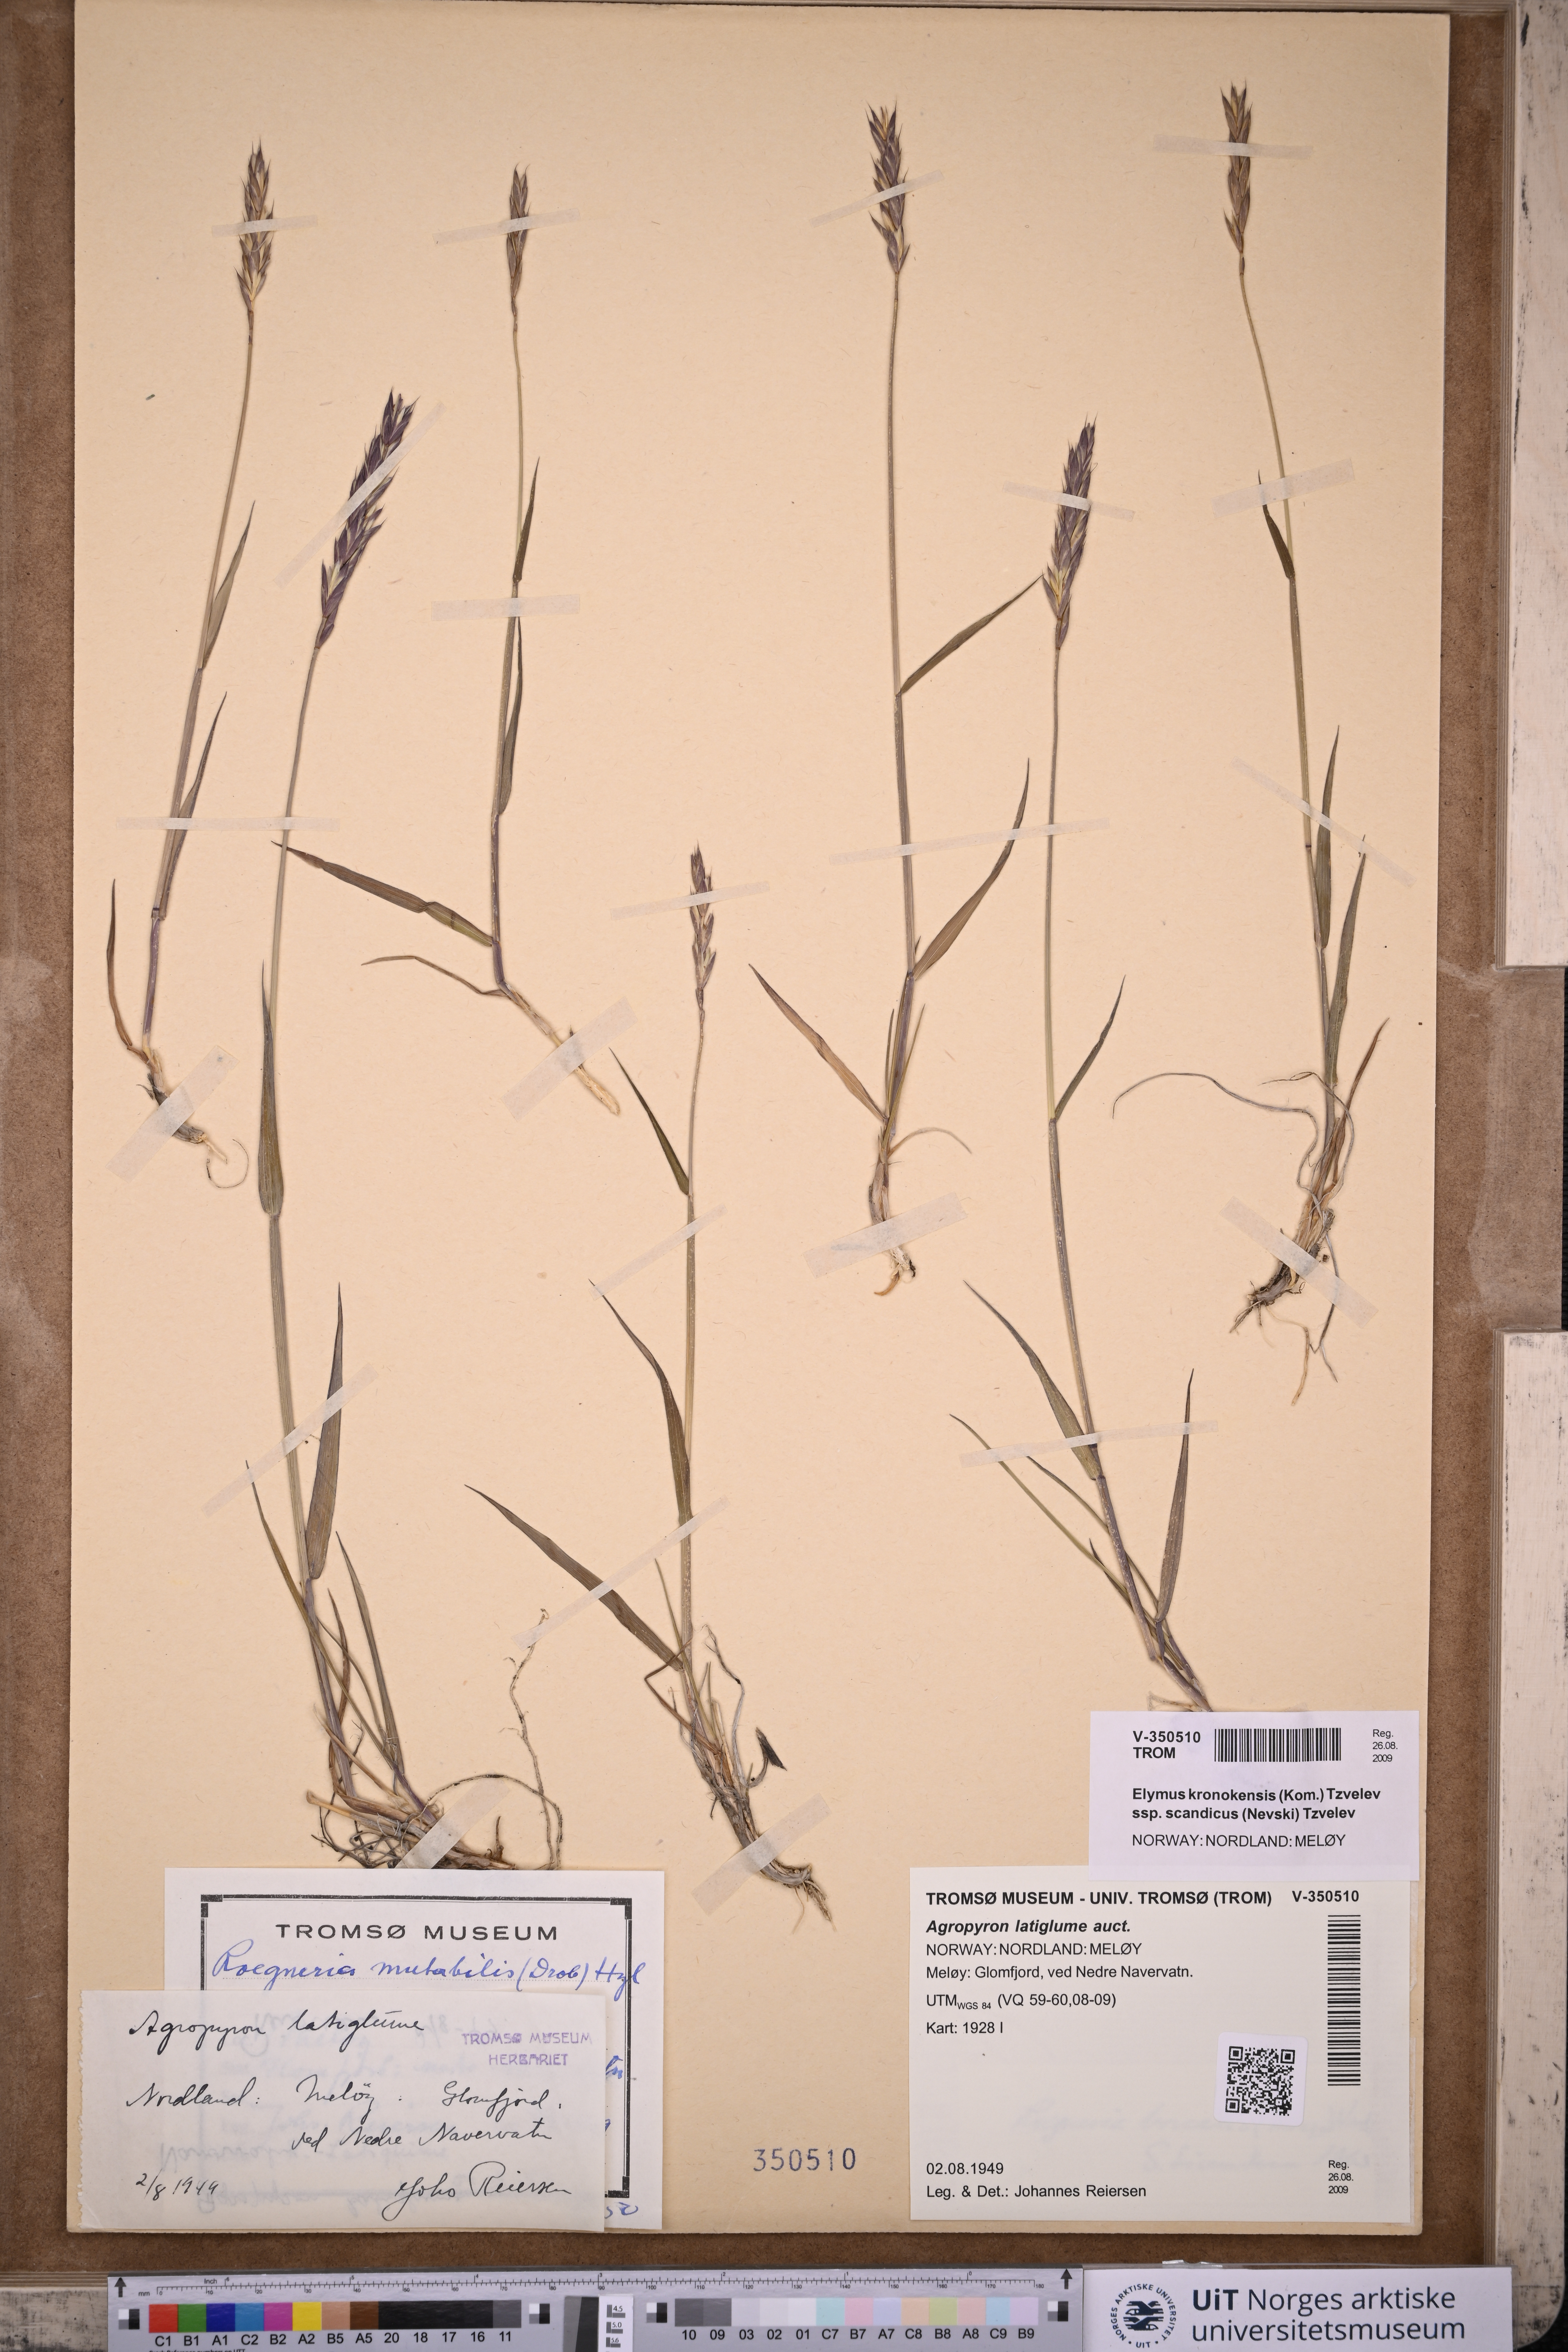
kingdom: Plantae
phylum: Tracheophyta
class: Liliopsida
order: Poales
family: Poaceae
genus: Elymus
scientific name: Elymus macrourus
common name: Northern wheatgrass
